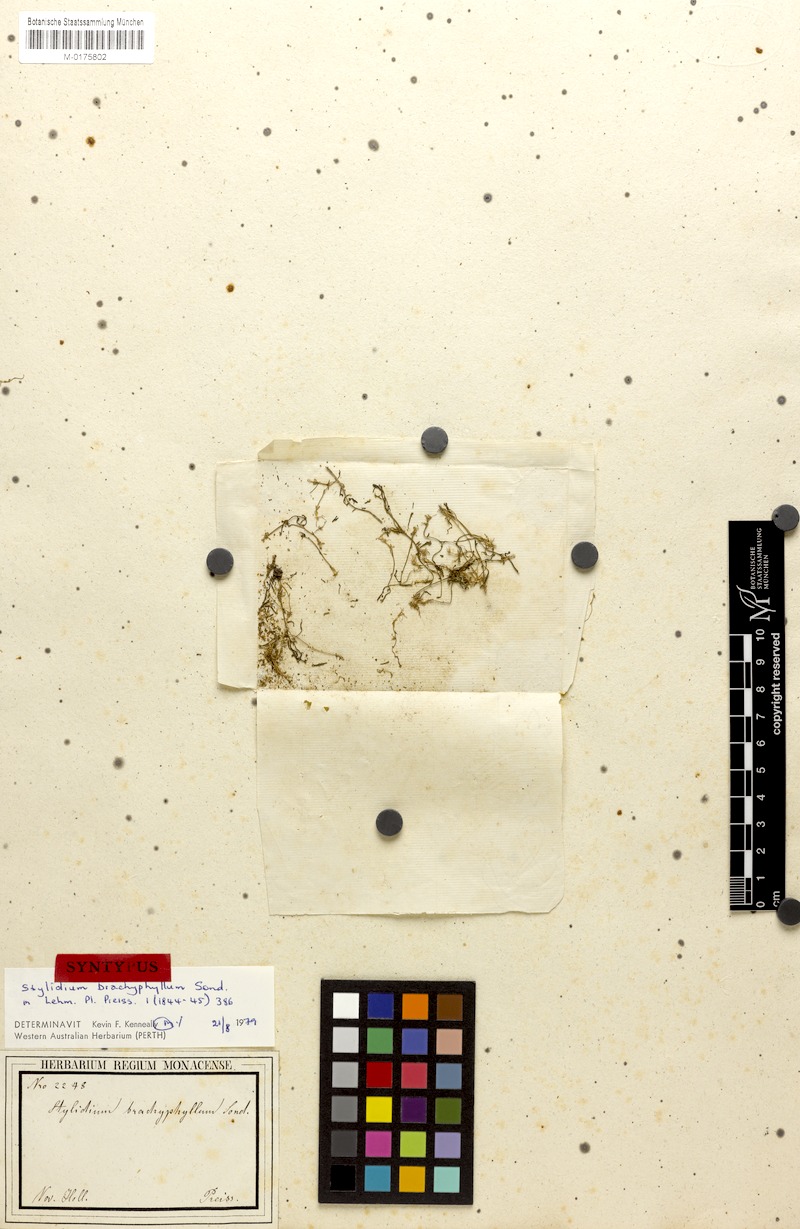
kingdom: Plantae
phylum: Tracheophyta
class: Magnoliopsida
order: Asterales
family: Stylidiaceae
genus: Stylidium
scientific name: Stylidium despectum
